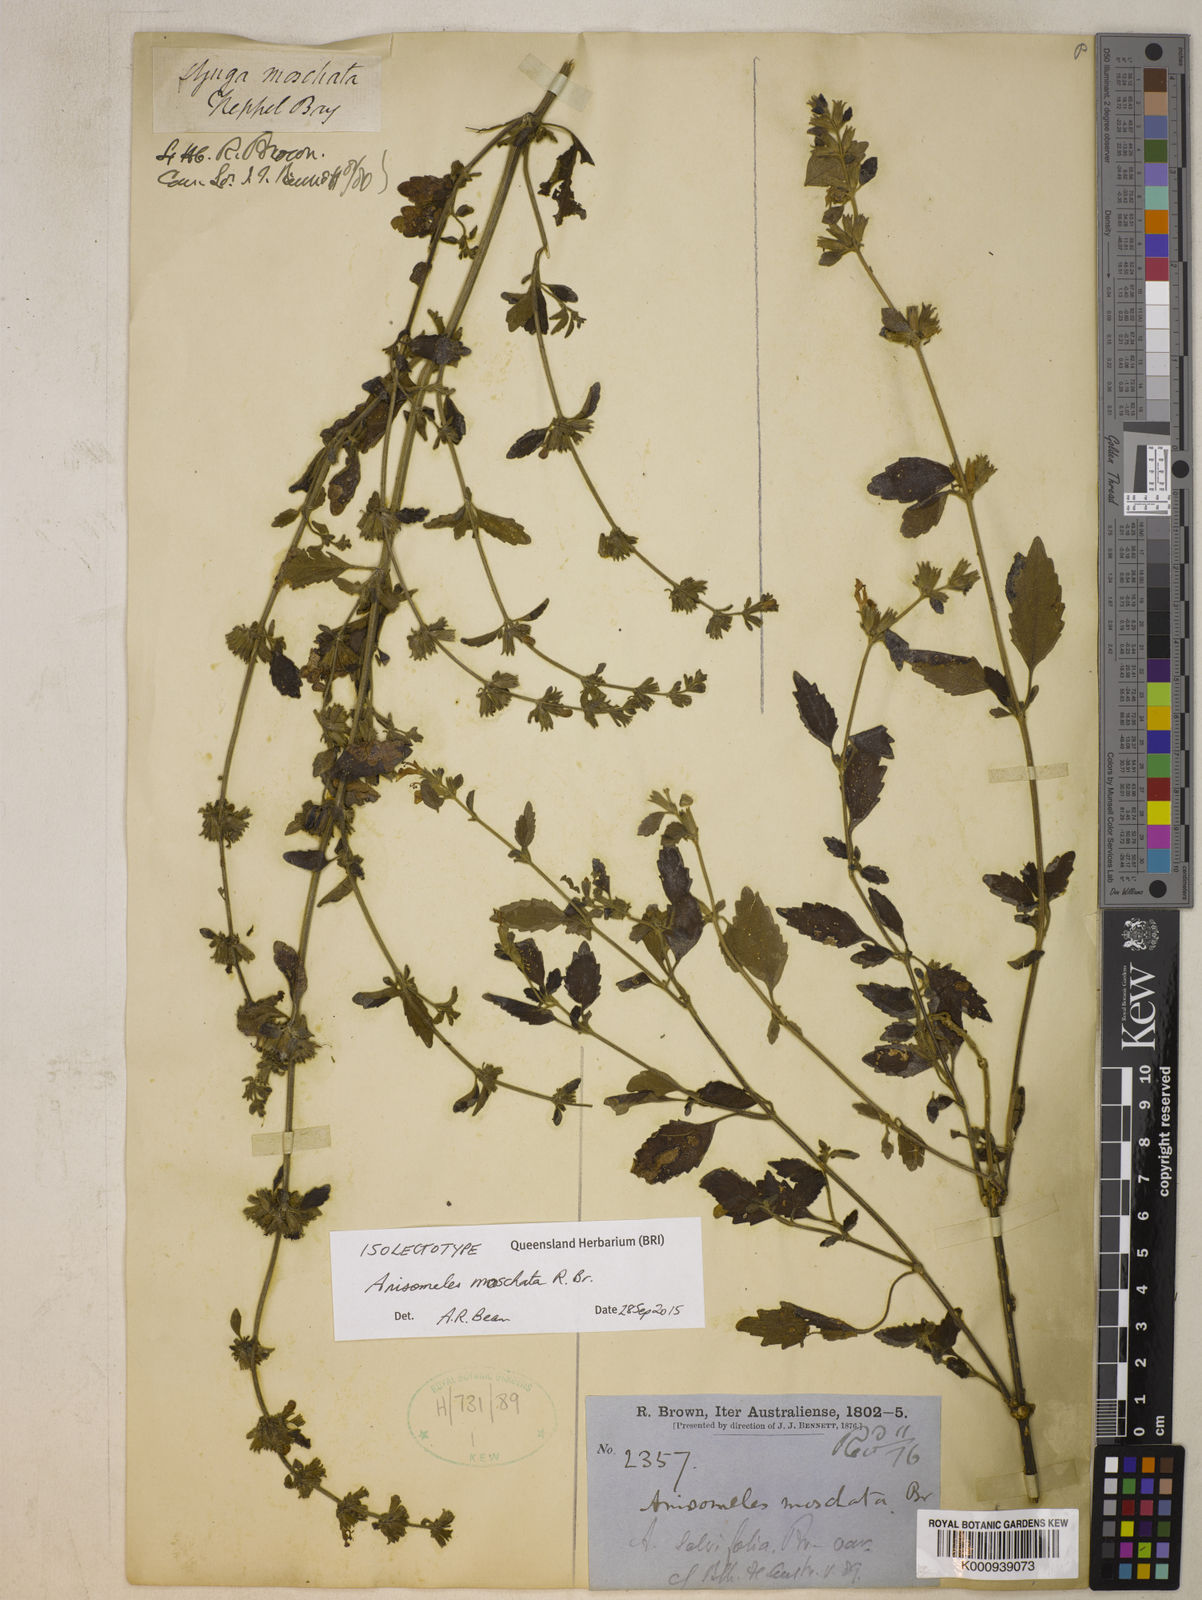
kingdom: Plantae
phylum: Tracheophyta
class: Magnoliopsida
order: Lamiales
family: Lamiaceae
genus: Anisomeles
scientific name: Anisomeles moschata
